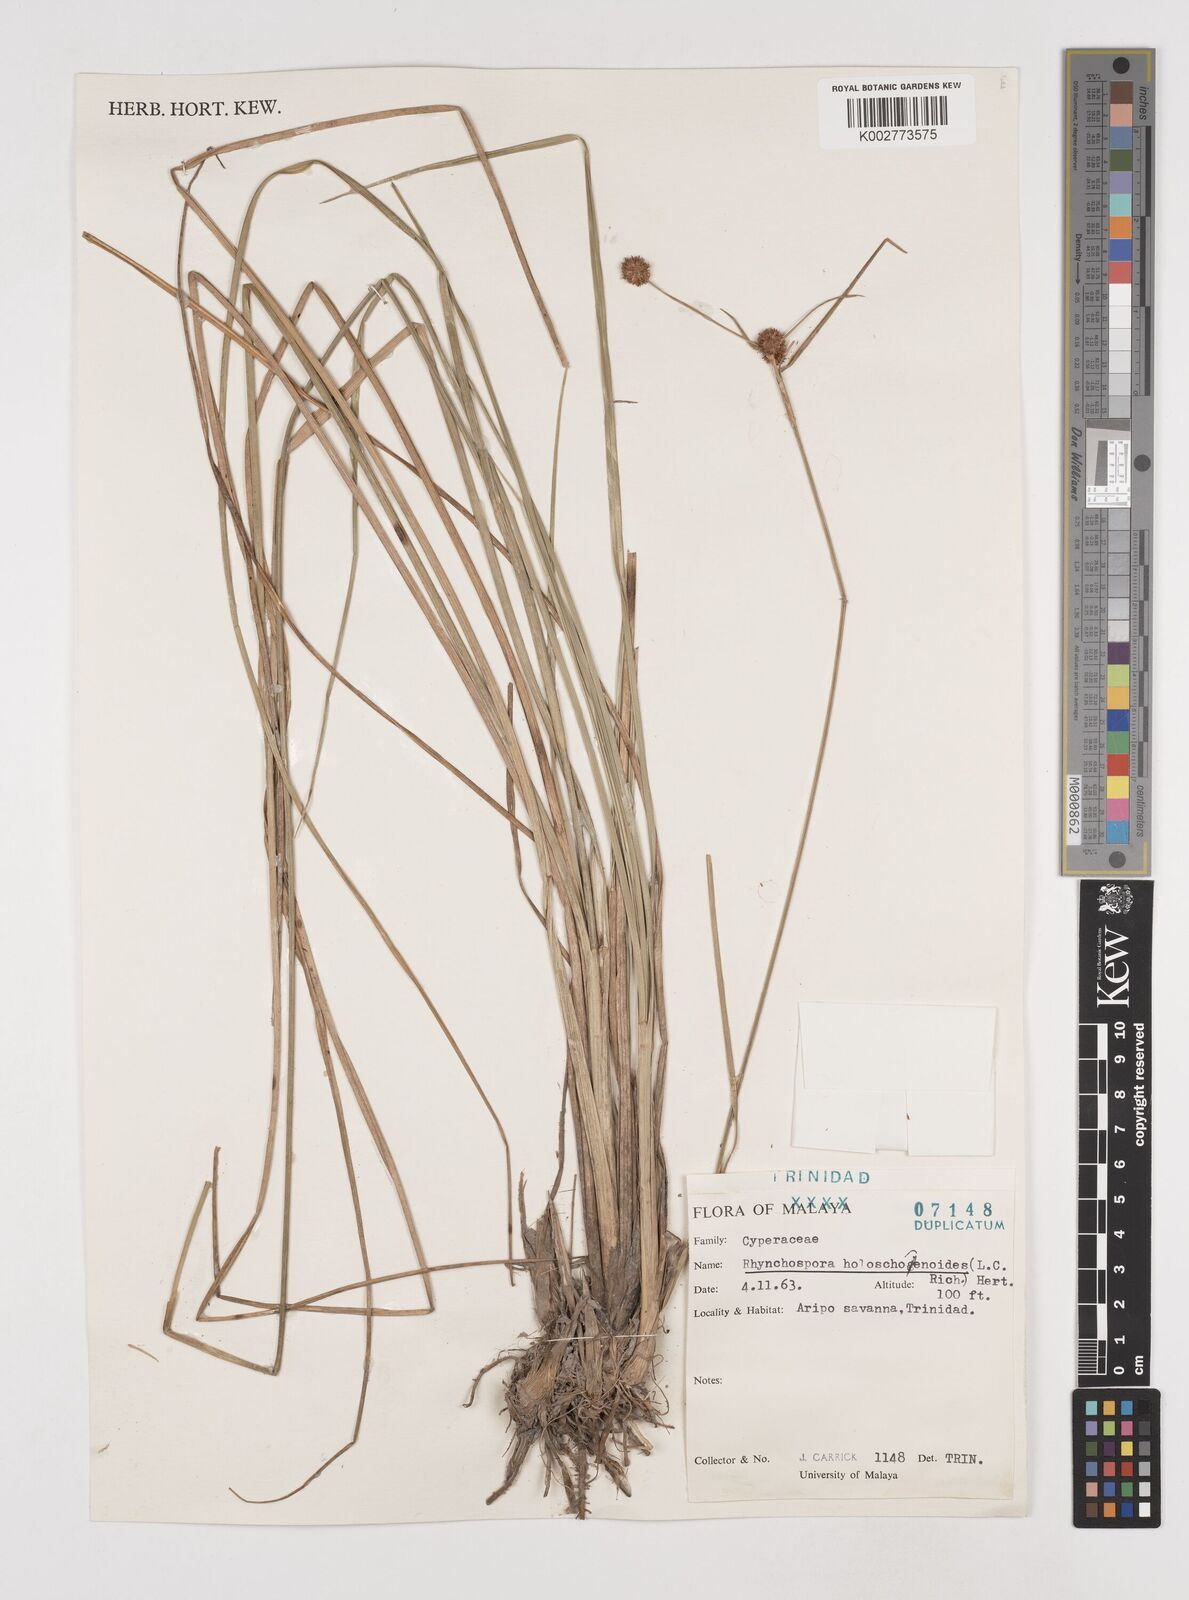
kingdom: Plantae
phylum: Tracheophyta
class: Liliopsida
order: Poales
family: Cyperaceae
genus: Rhynchospora
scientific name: Rhynchospora holoschoenoides
